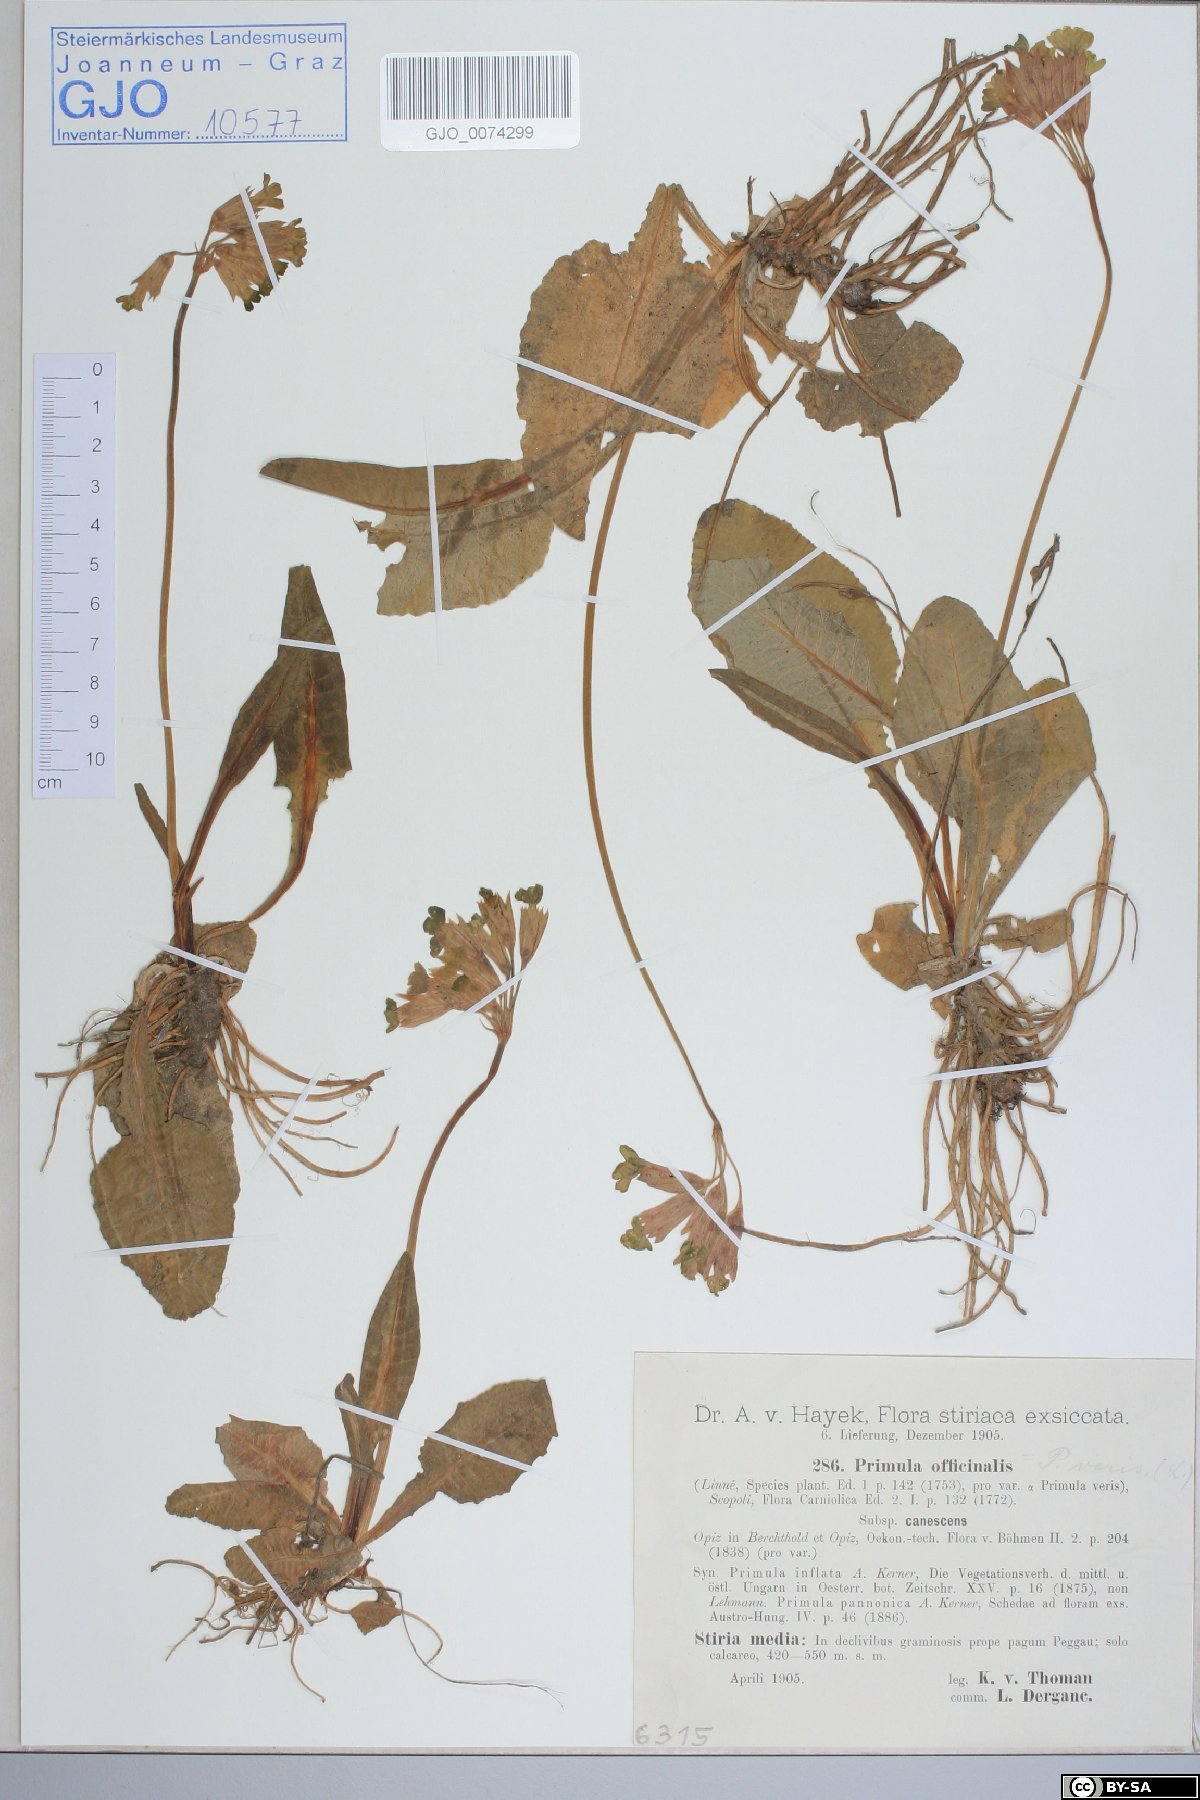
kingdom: Plantae
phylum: Tracheophyta
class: Magnoliopsida
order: Ericales
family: Primulaceae
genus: Primula
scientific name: Primula veris
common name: Cowslip
